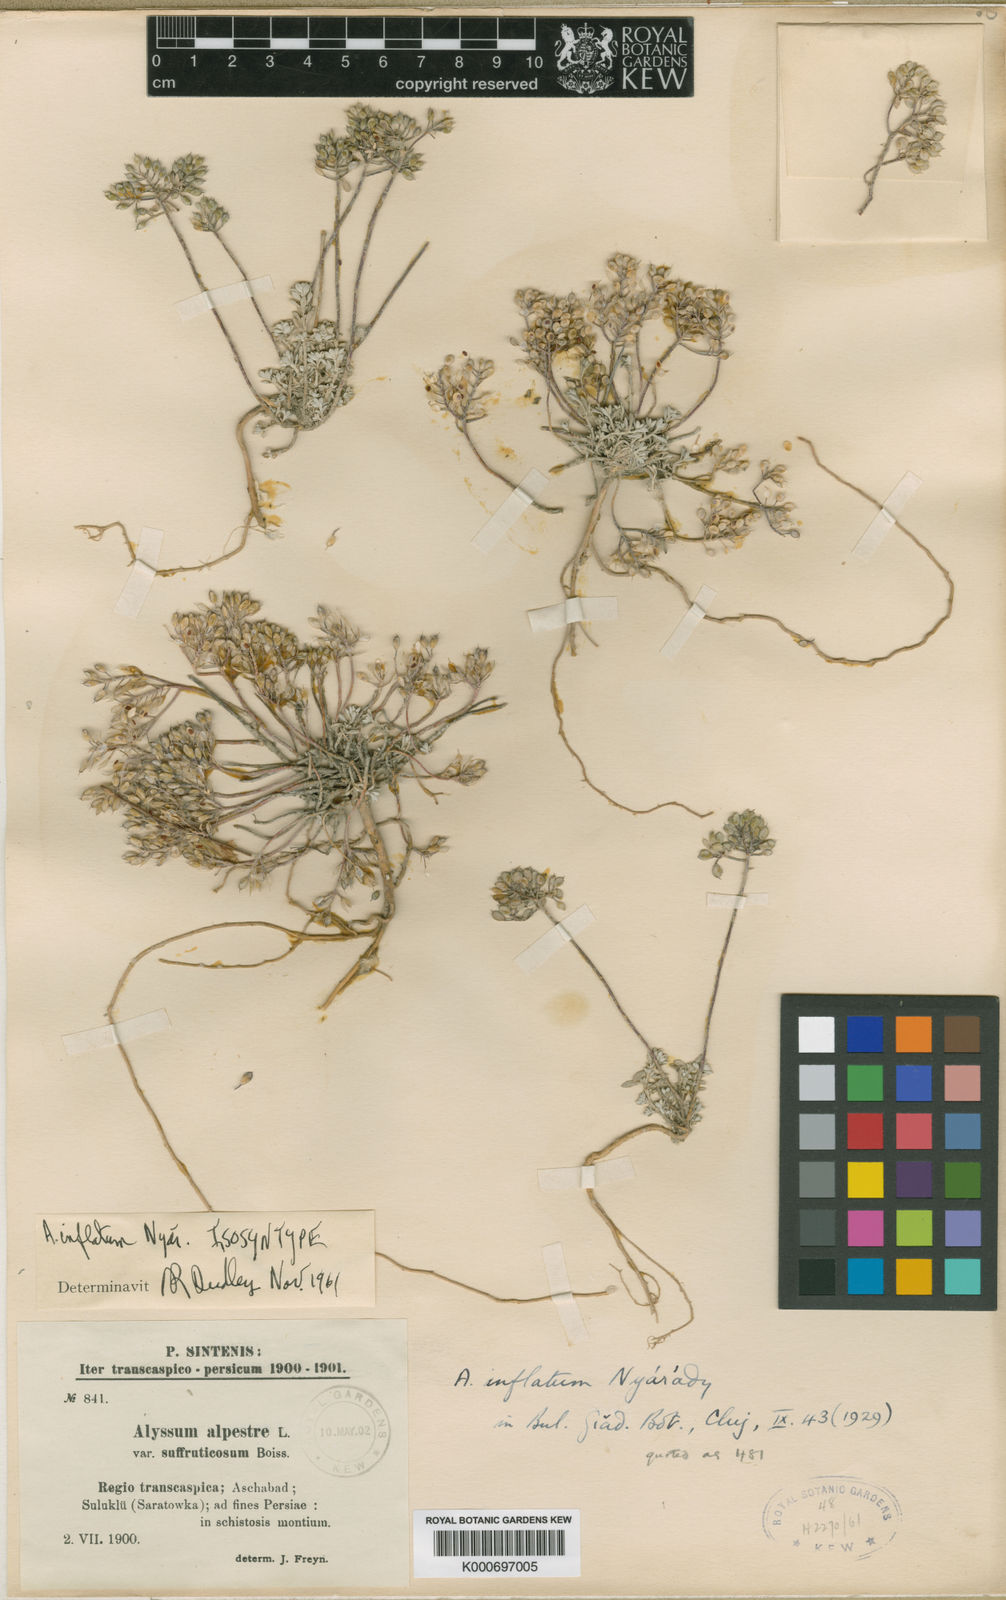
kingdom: Plantae
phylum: Tracheophyta
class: Magnoliopsida
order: Brassicales
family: Brassicaceae
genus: Odontarrhena
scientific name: Odontarrhena inflata
